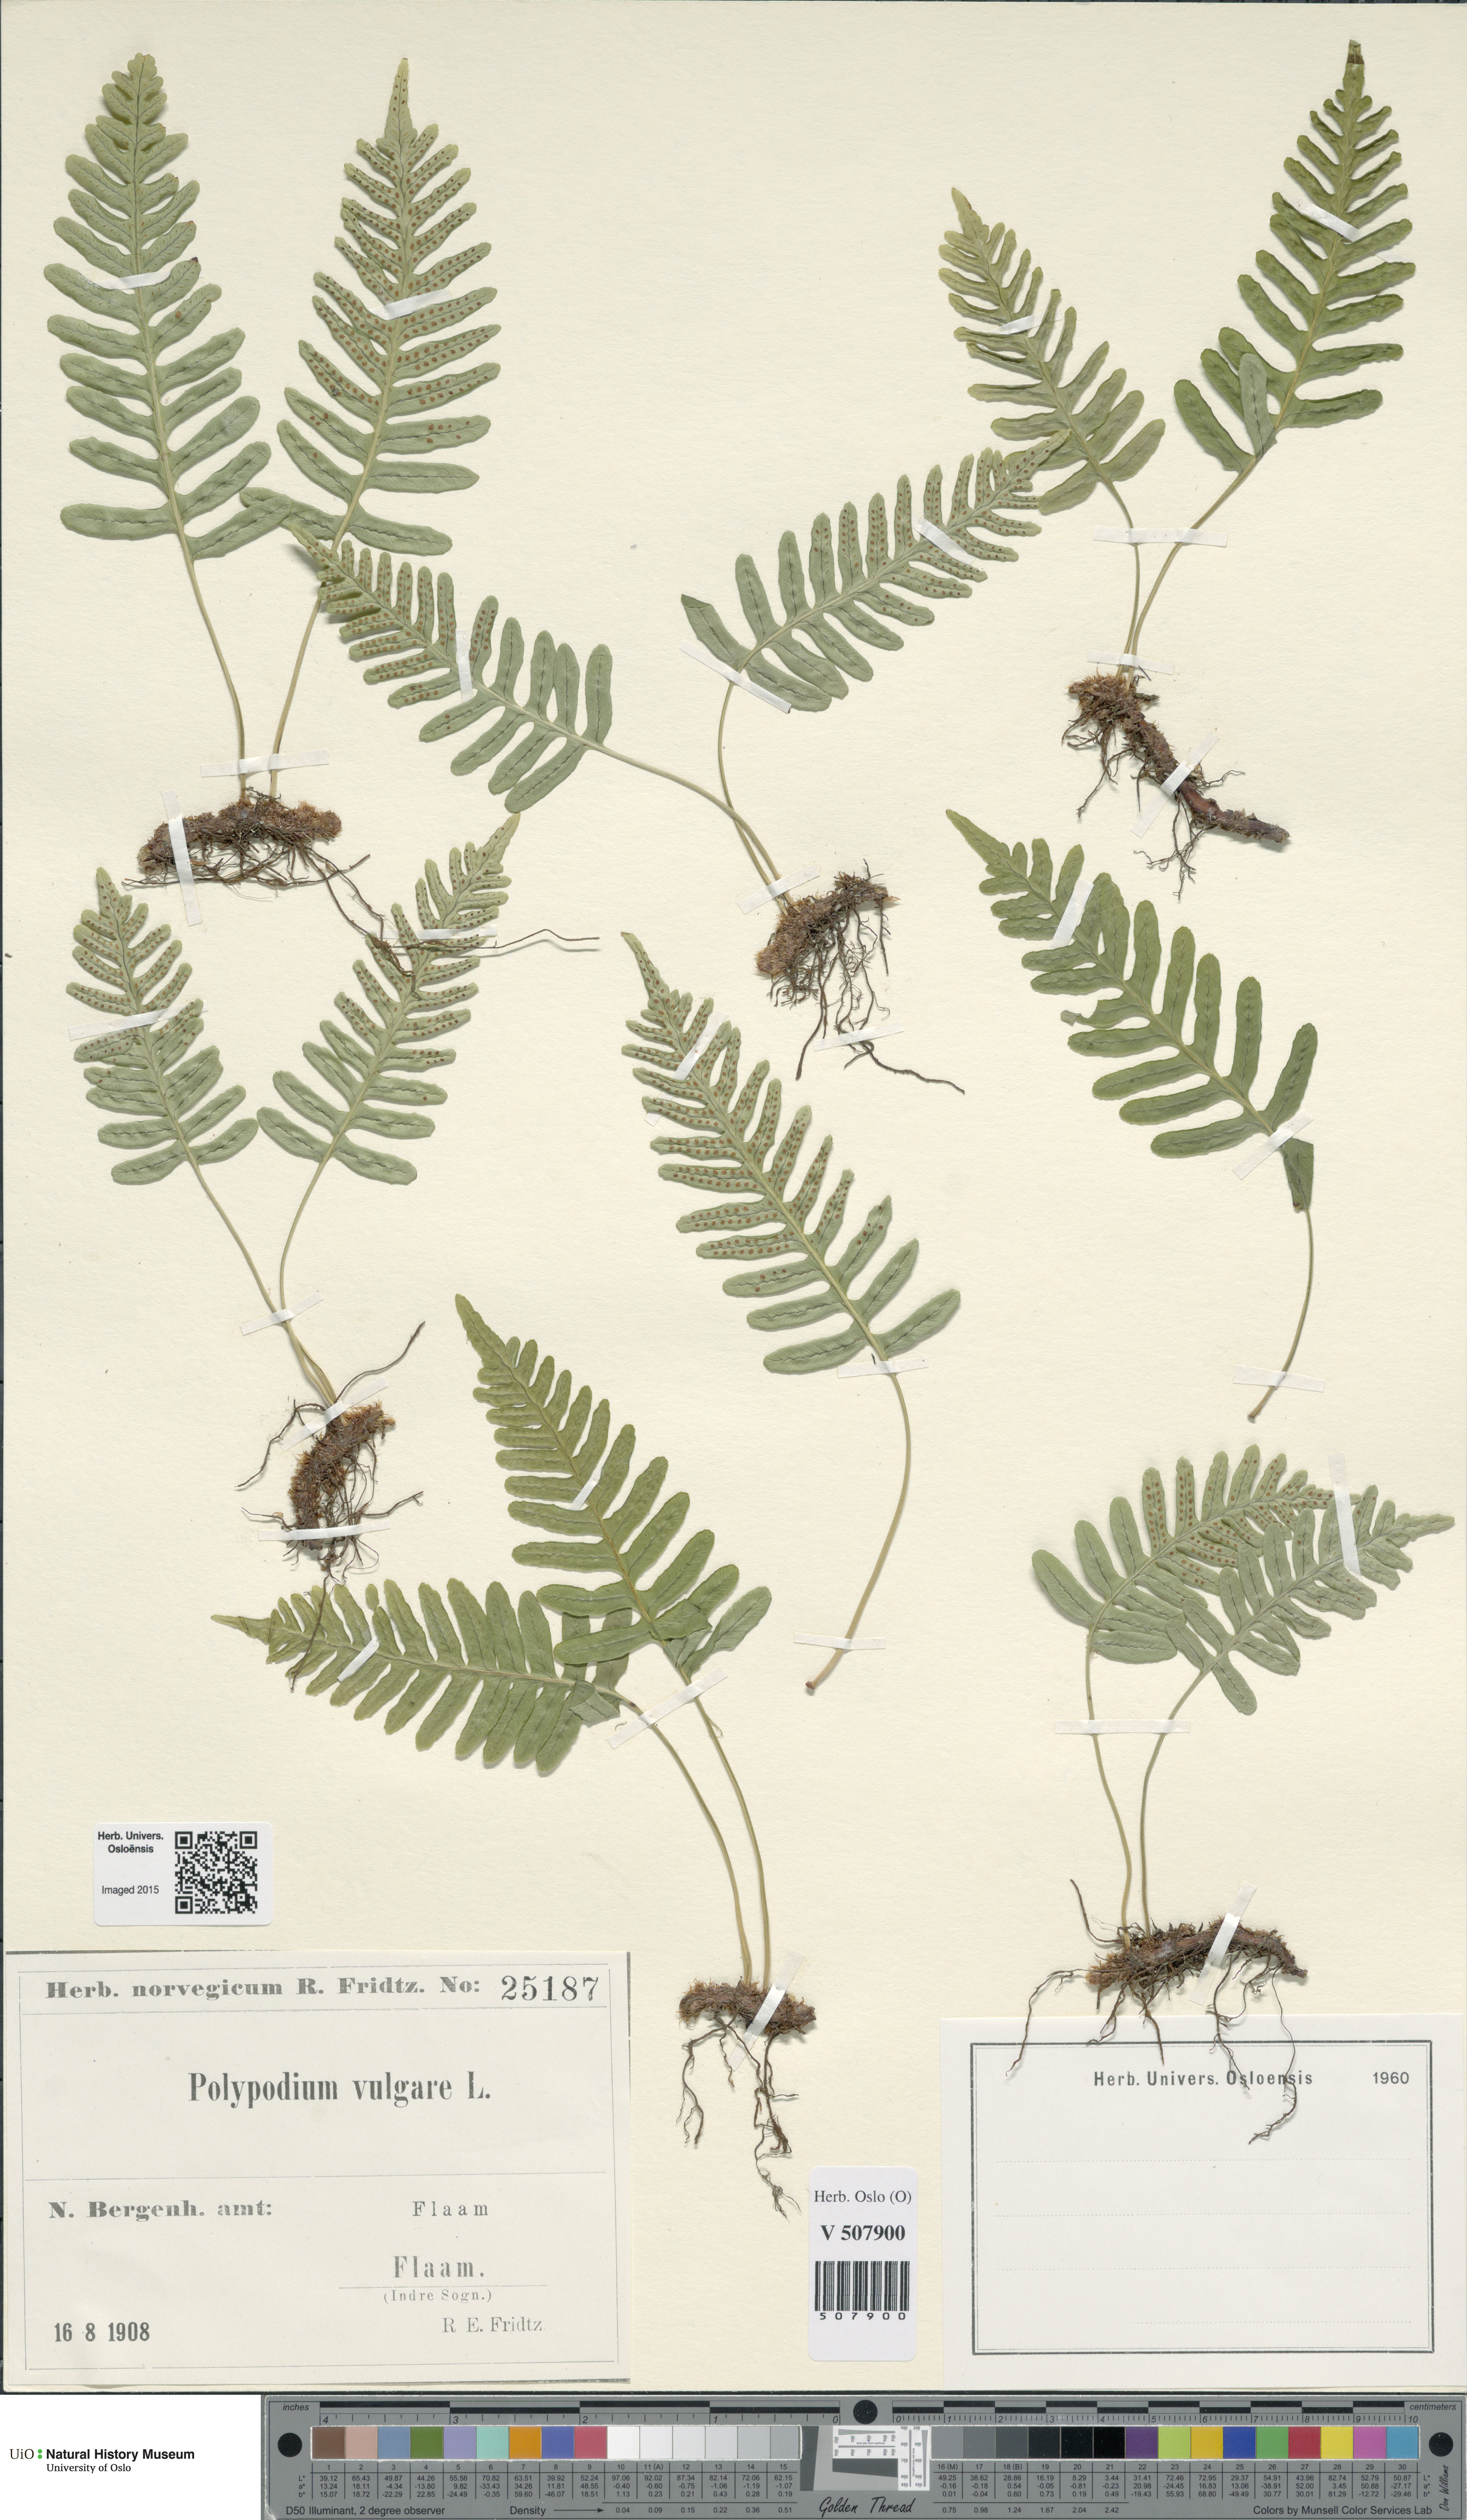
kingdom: Plantae
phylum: Tracheophyta
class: Polypodiopsida
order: Polypodiales
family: Polypodiaceae
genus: Polypodium
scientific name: Polypodium vulgare
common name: Common polypody
